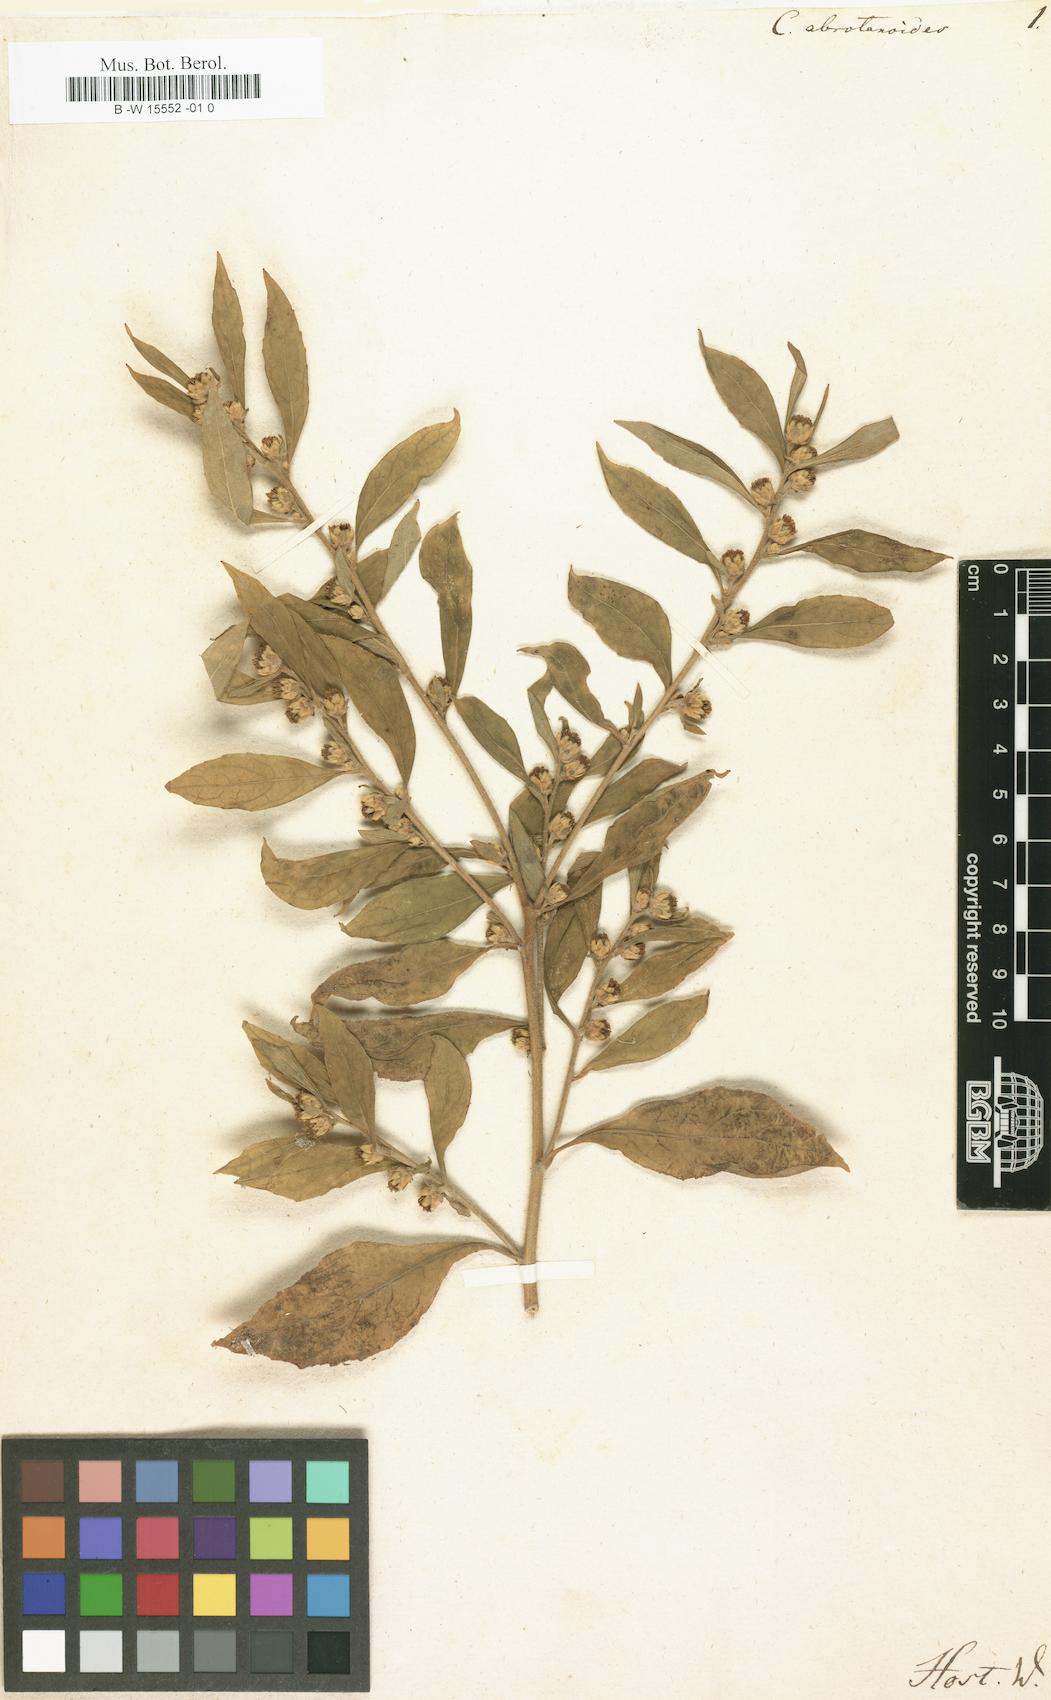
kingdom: Plantae
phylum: Tracheophyta
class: Magnoliopsida
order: Asterales
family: Asteraceae
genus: Carpesium
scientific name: Carpesium abrotanoides
